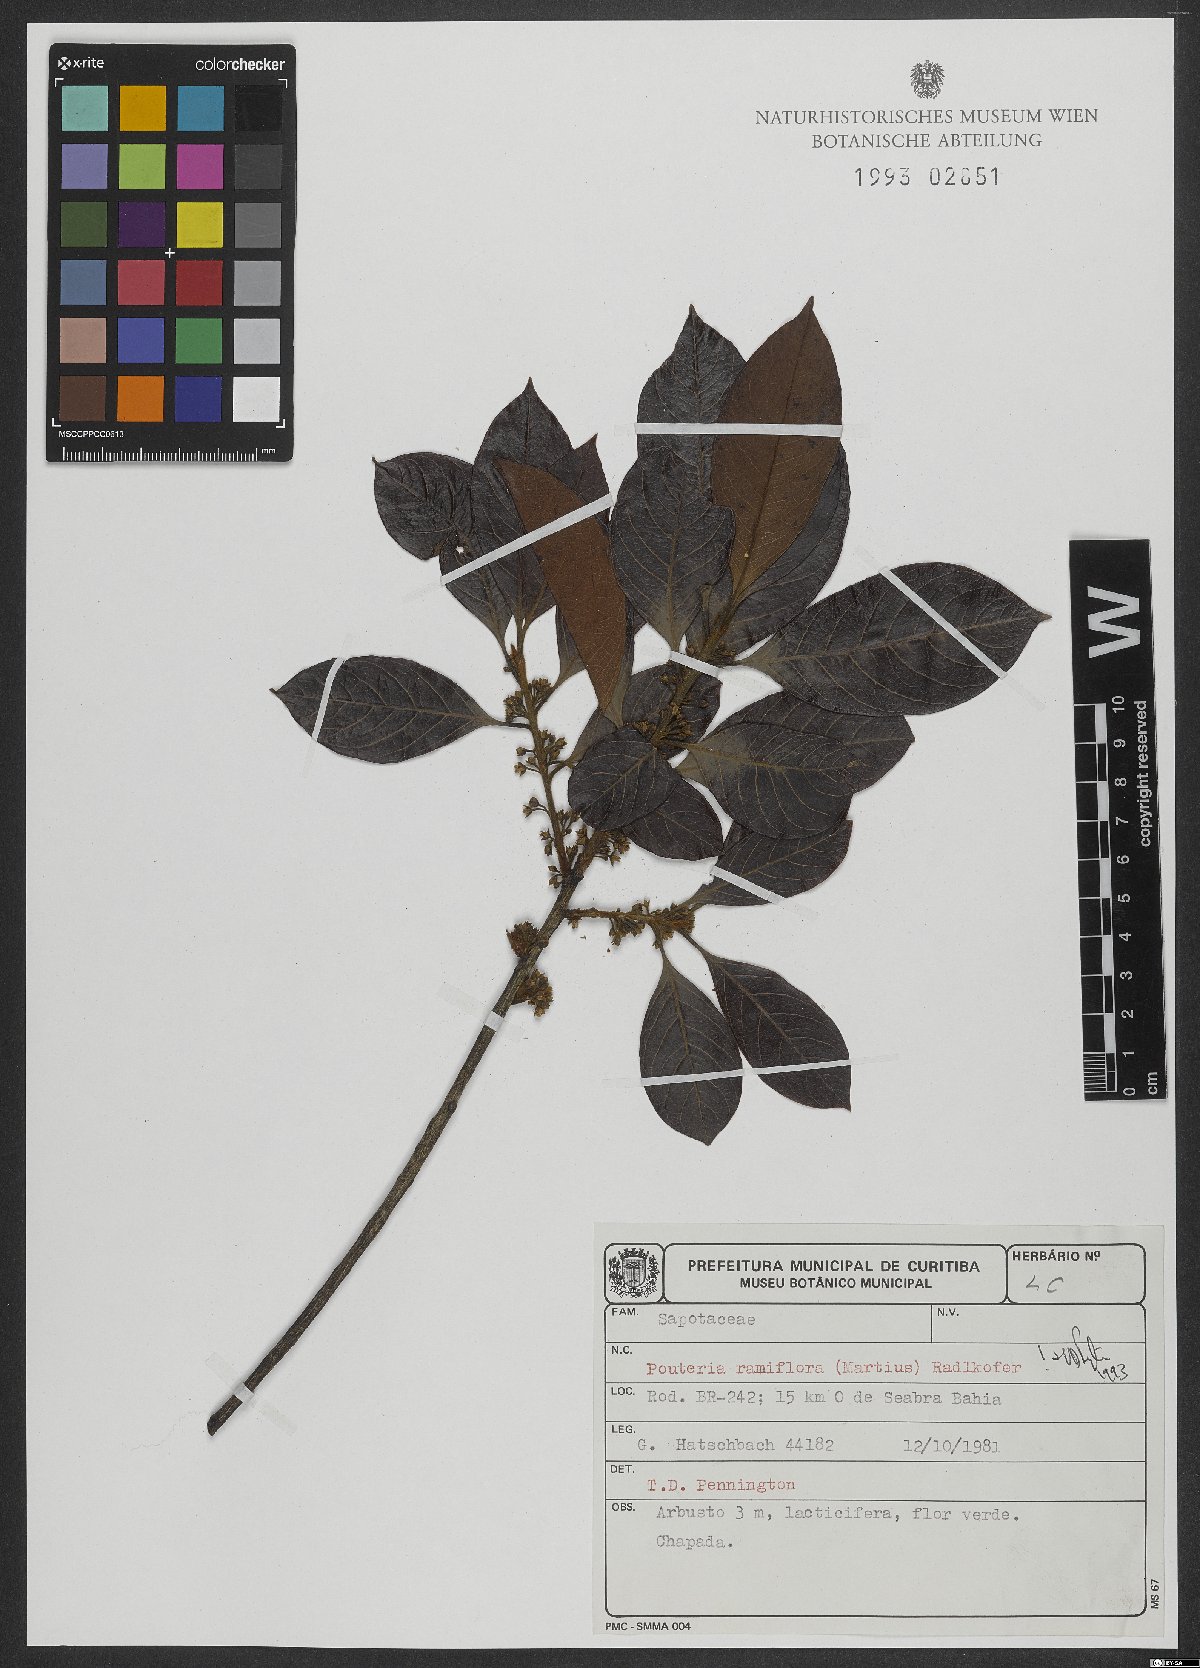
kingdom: Plantae
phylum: Tracheophyta
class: Magnoliopsida
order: Ericales
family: Sapotaceae
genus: Pouteria
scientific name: Pouteria ramiflora
